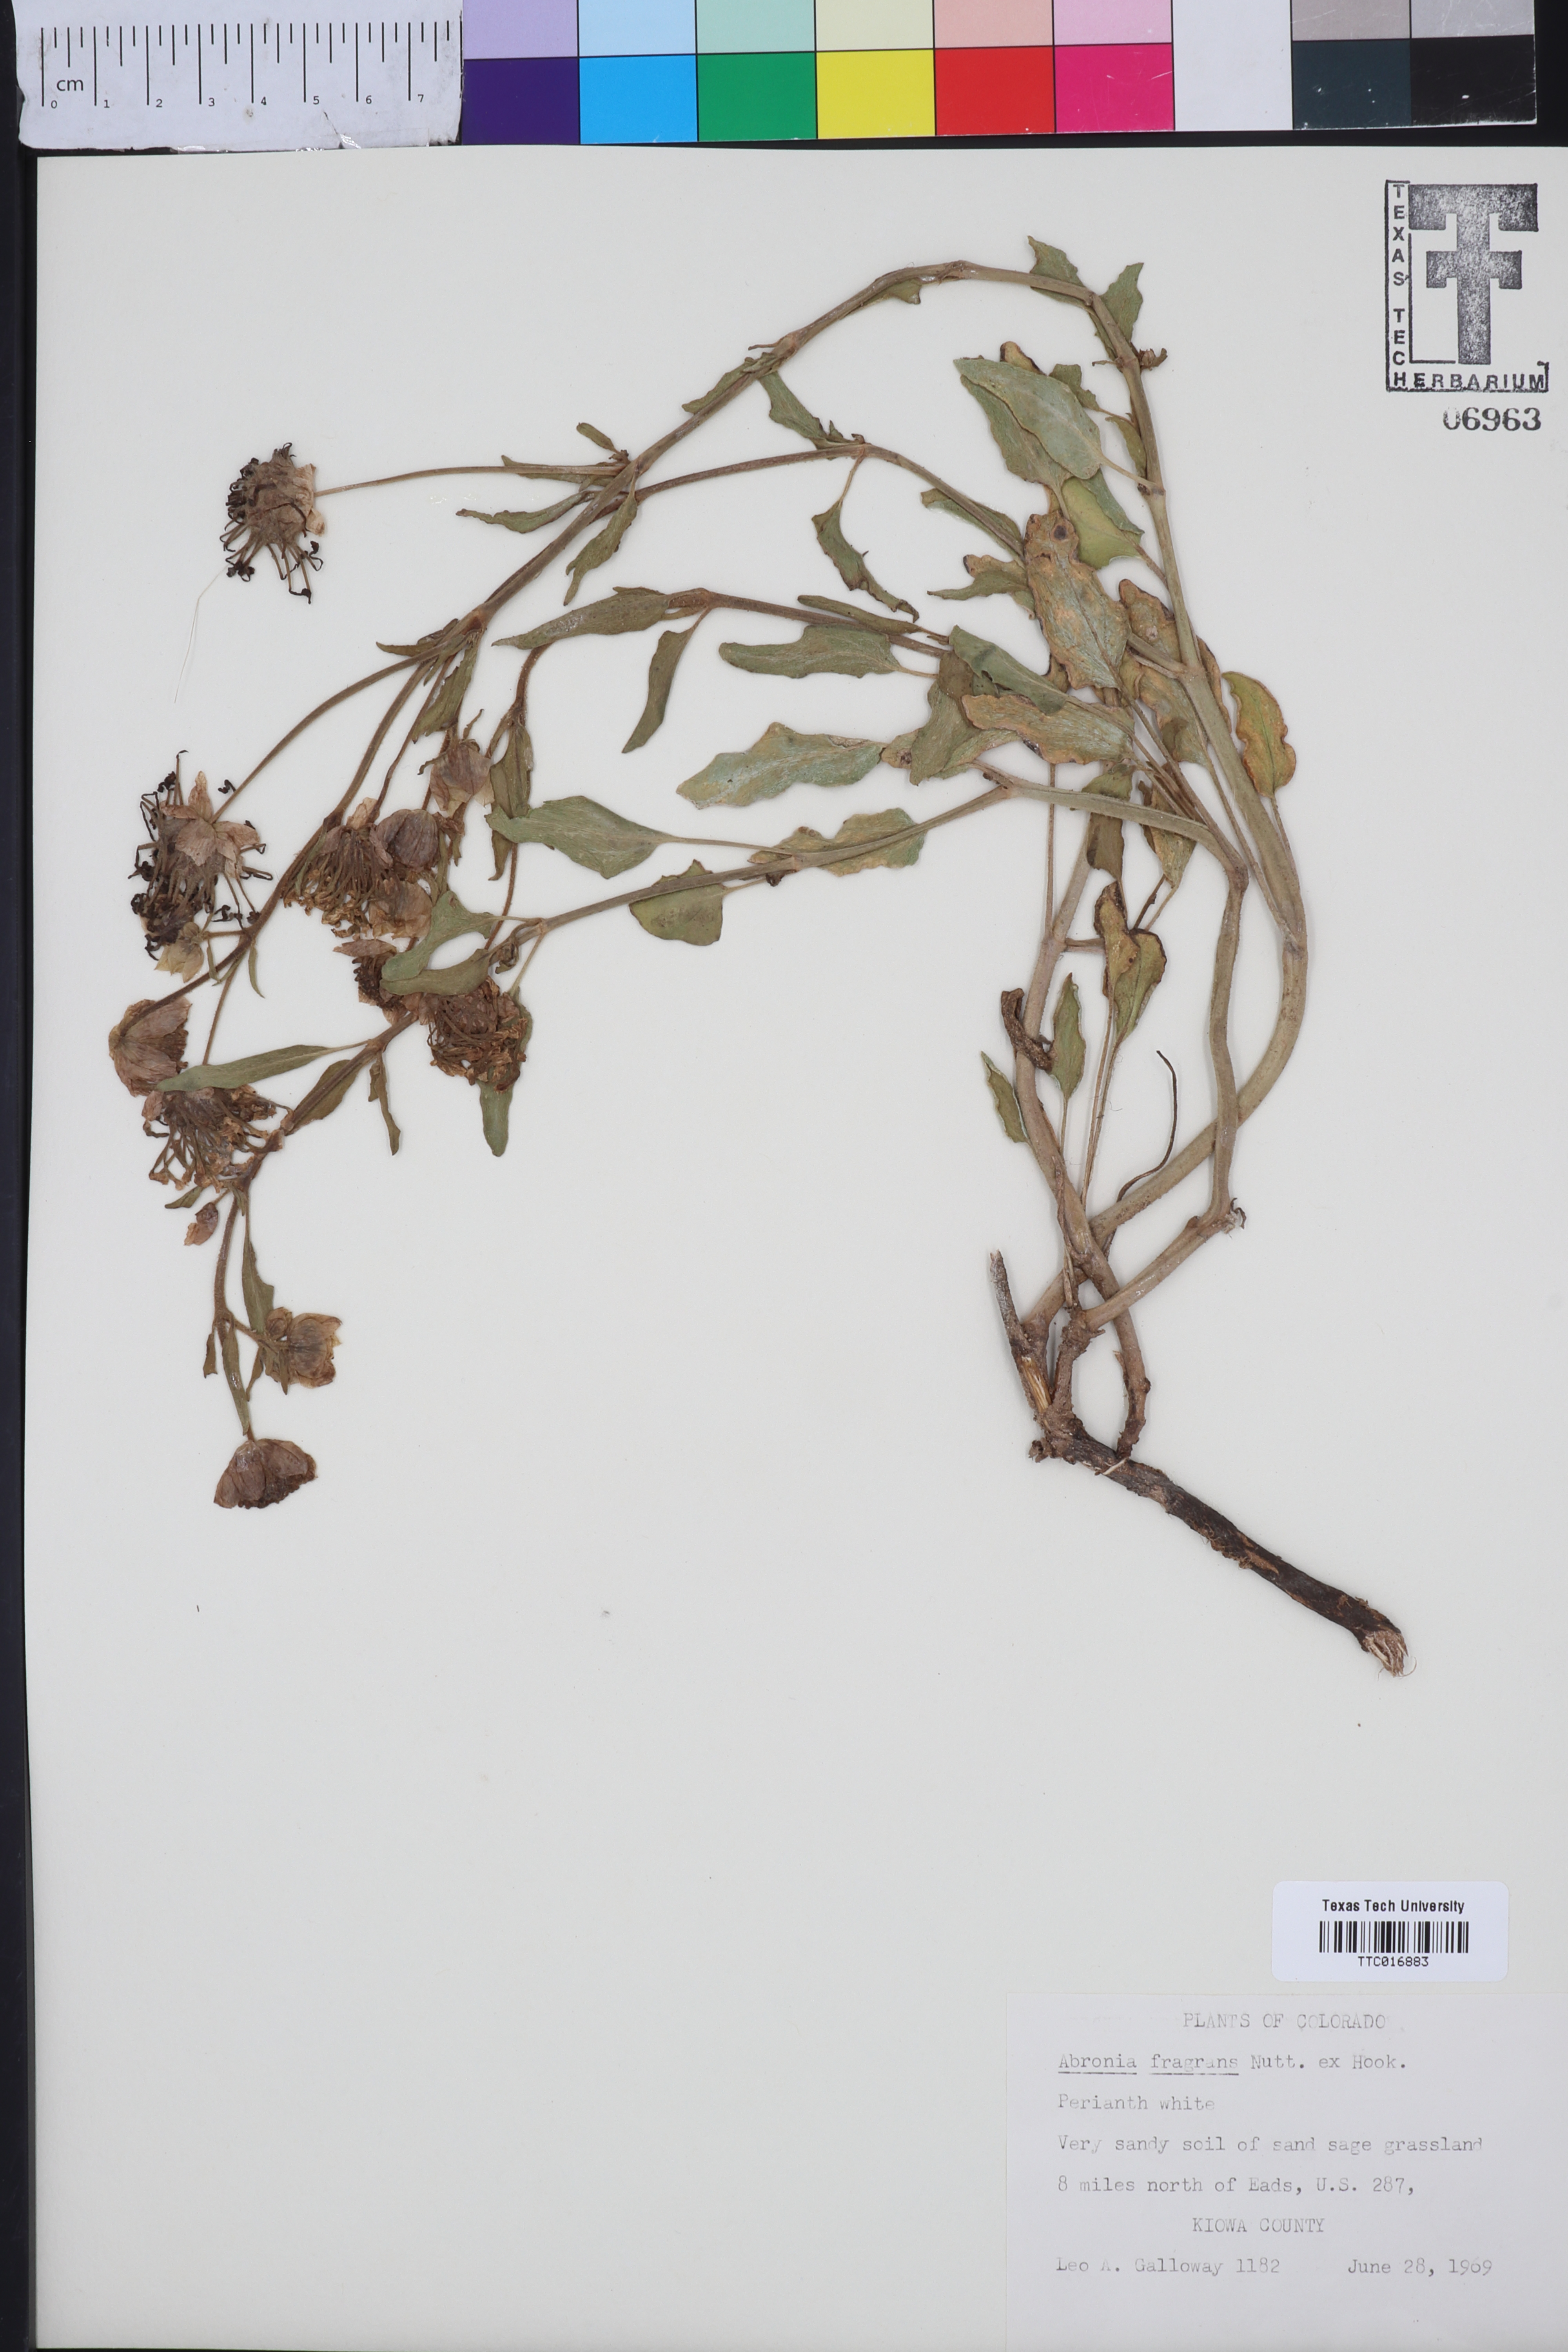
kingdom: Plantae
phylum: Tracheophyta
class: Magnoliopsida
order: Caryophyllales
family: Nyctaginaceae
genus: Abronia
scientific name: Abronia fragrans
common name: Fragrant sand-verbena
